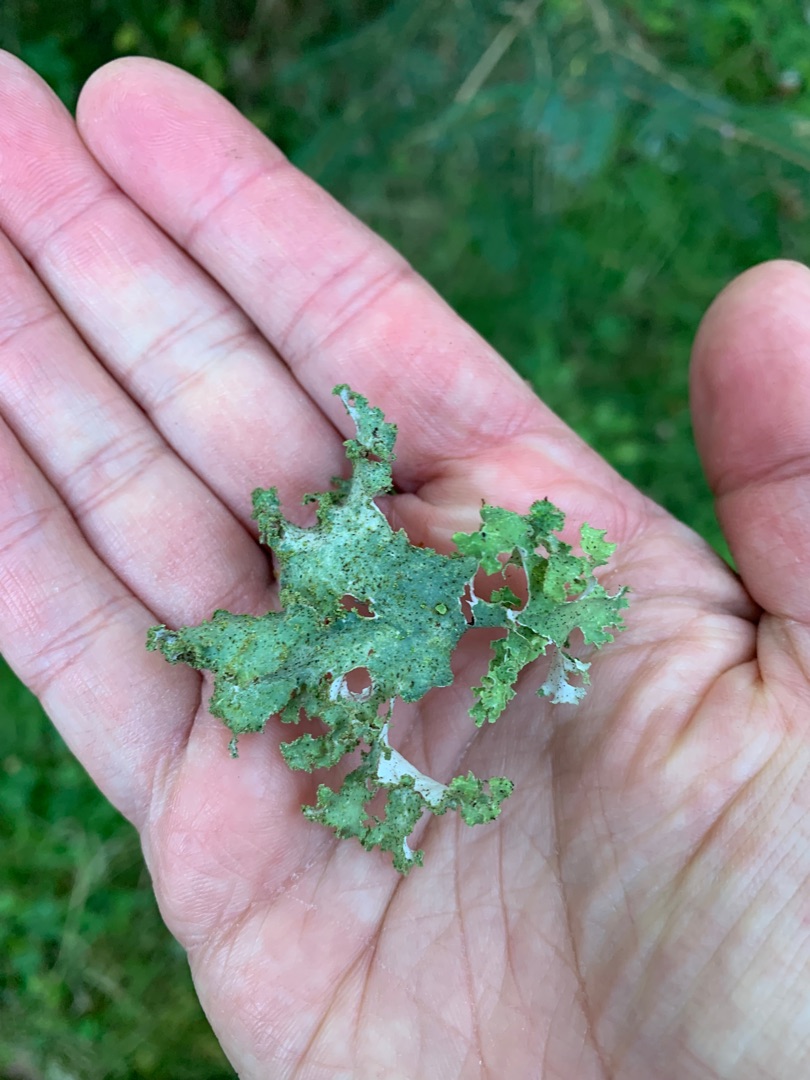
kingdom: Fungi
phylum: Ascomycota
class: Lecanoromycetes
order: Lecanorales
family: Parmeliaceae
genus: Platismatia
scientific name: Platismatia glauca
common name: Blågrå papirlav
